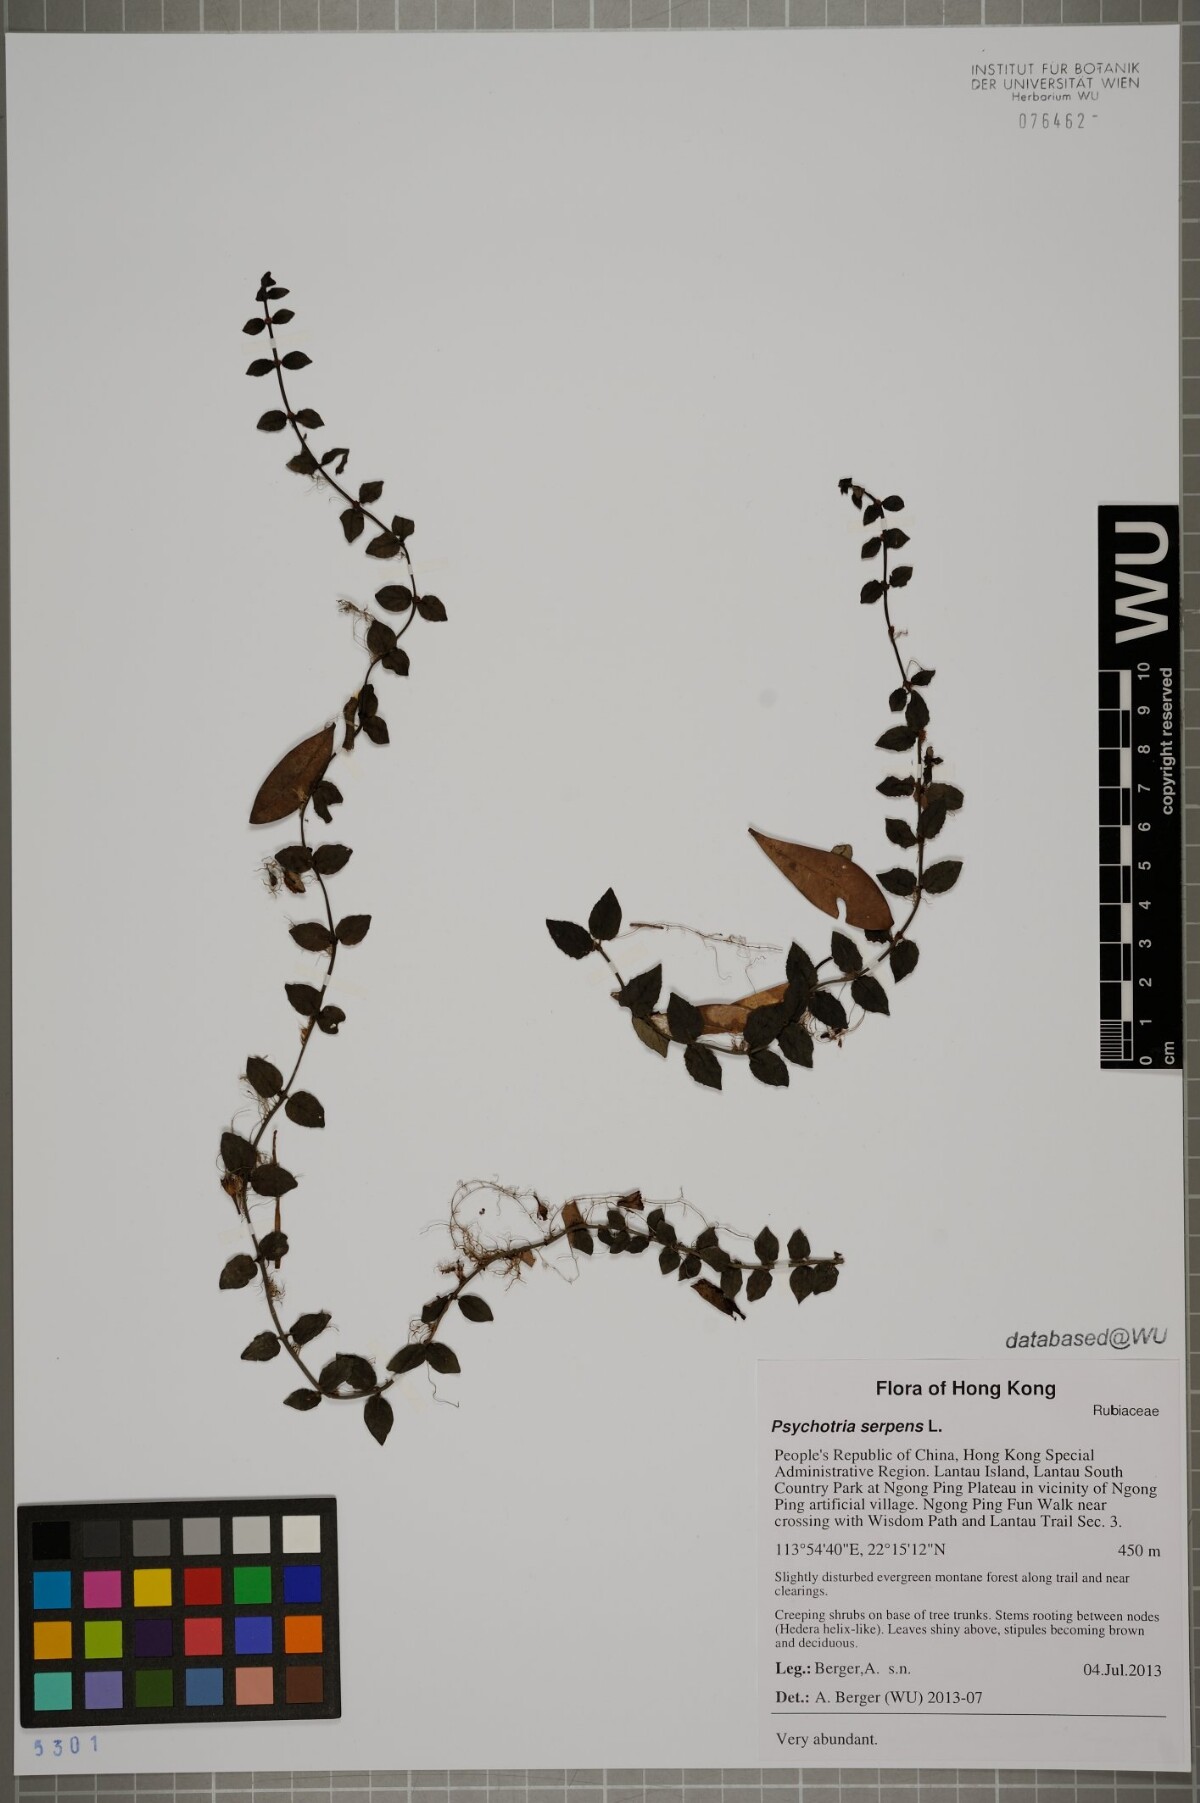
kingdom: Plantae
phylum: Tracheophyta
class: Magnoliopsida
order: Gentianales
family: Rubiaceae
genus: Psychotria
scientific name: Psychotria serpens
